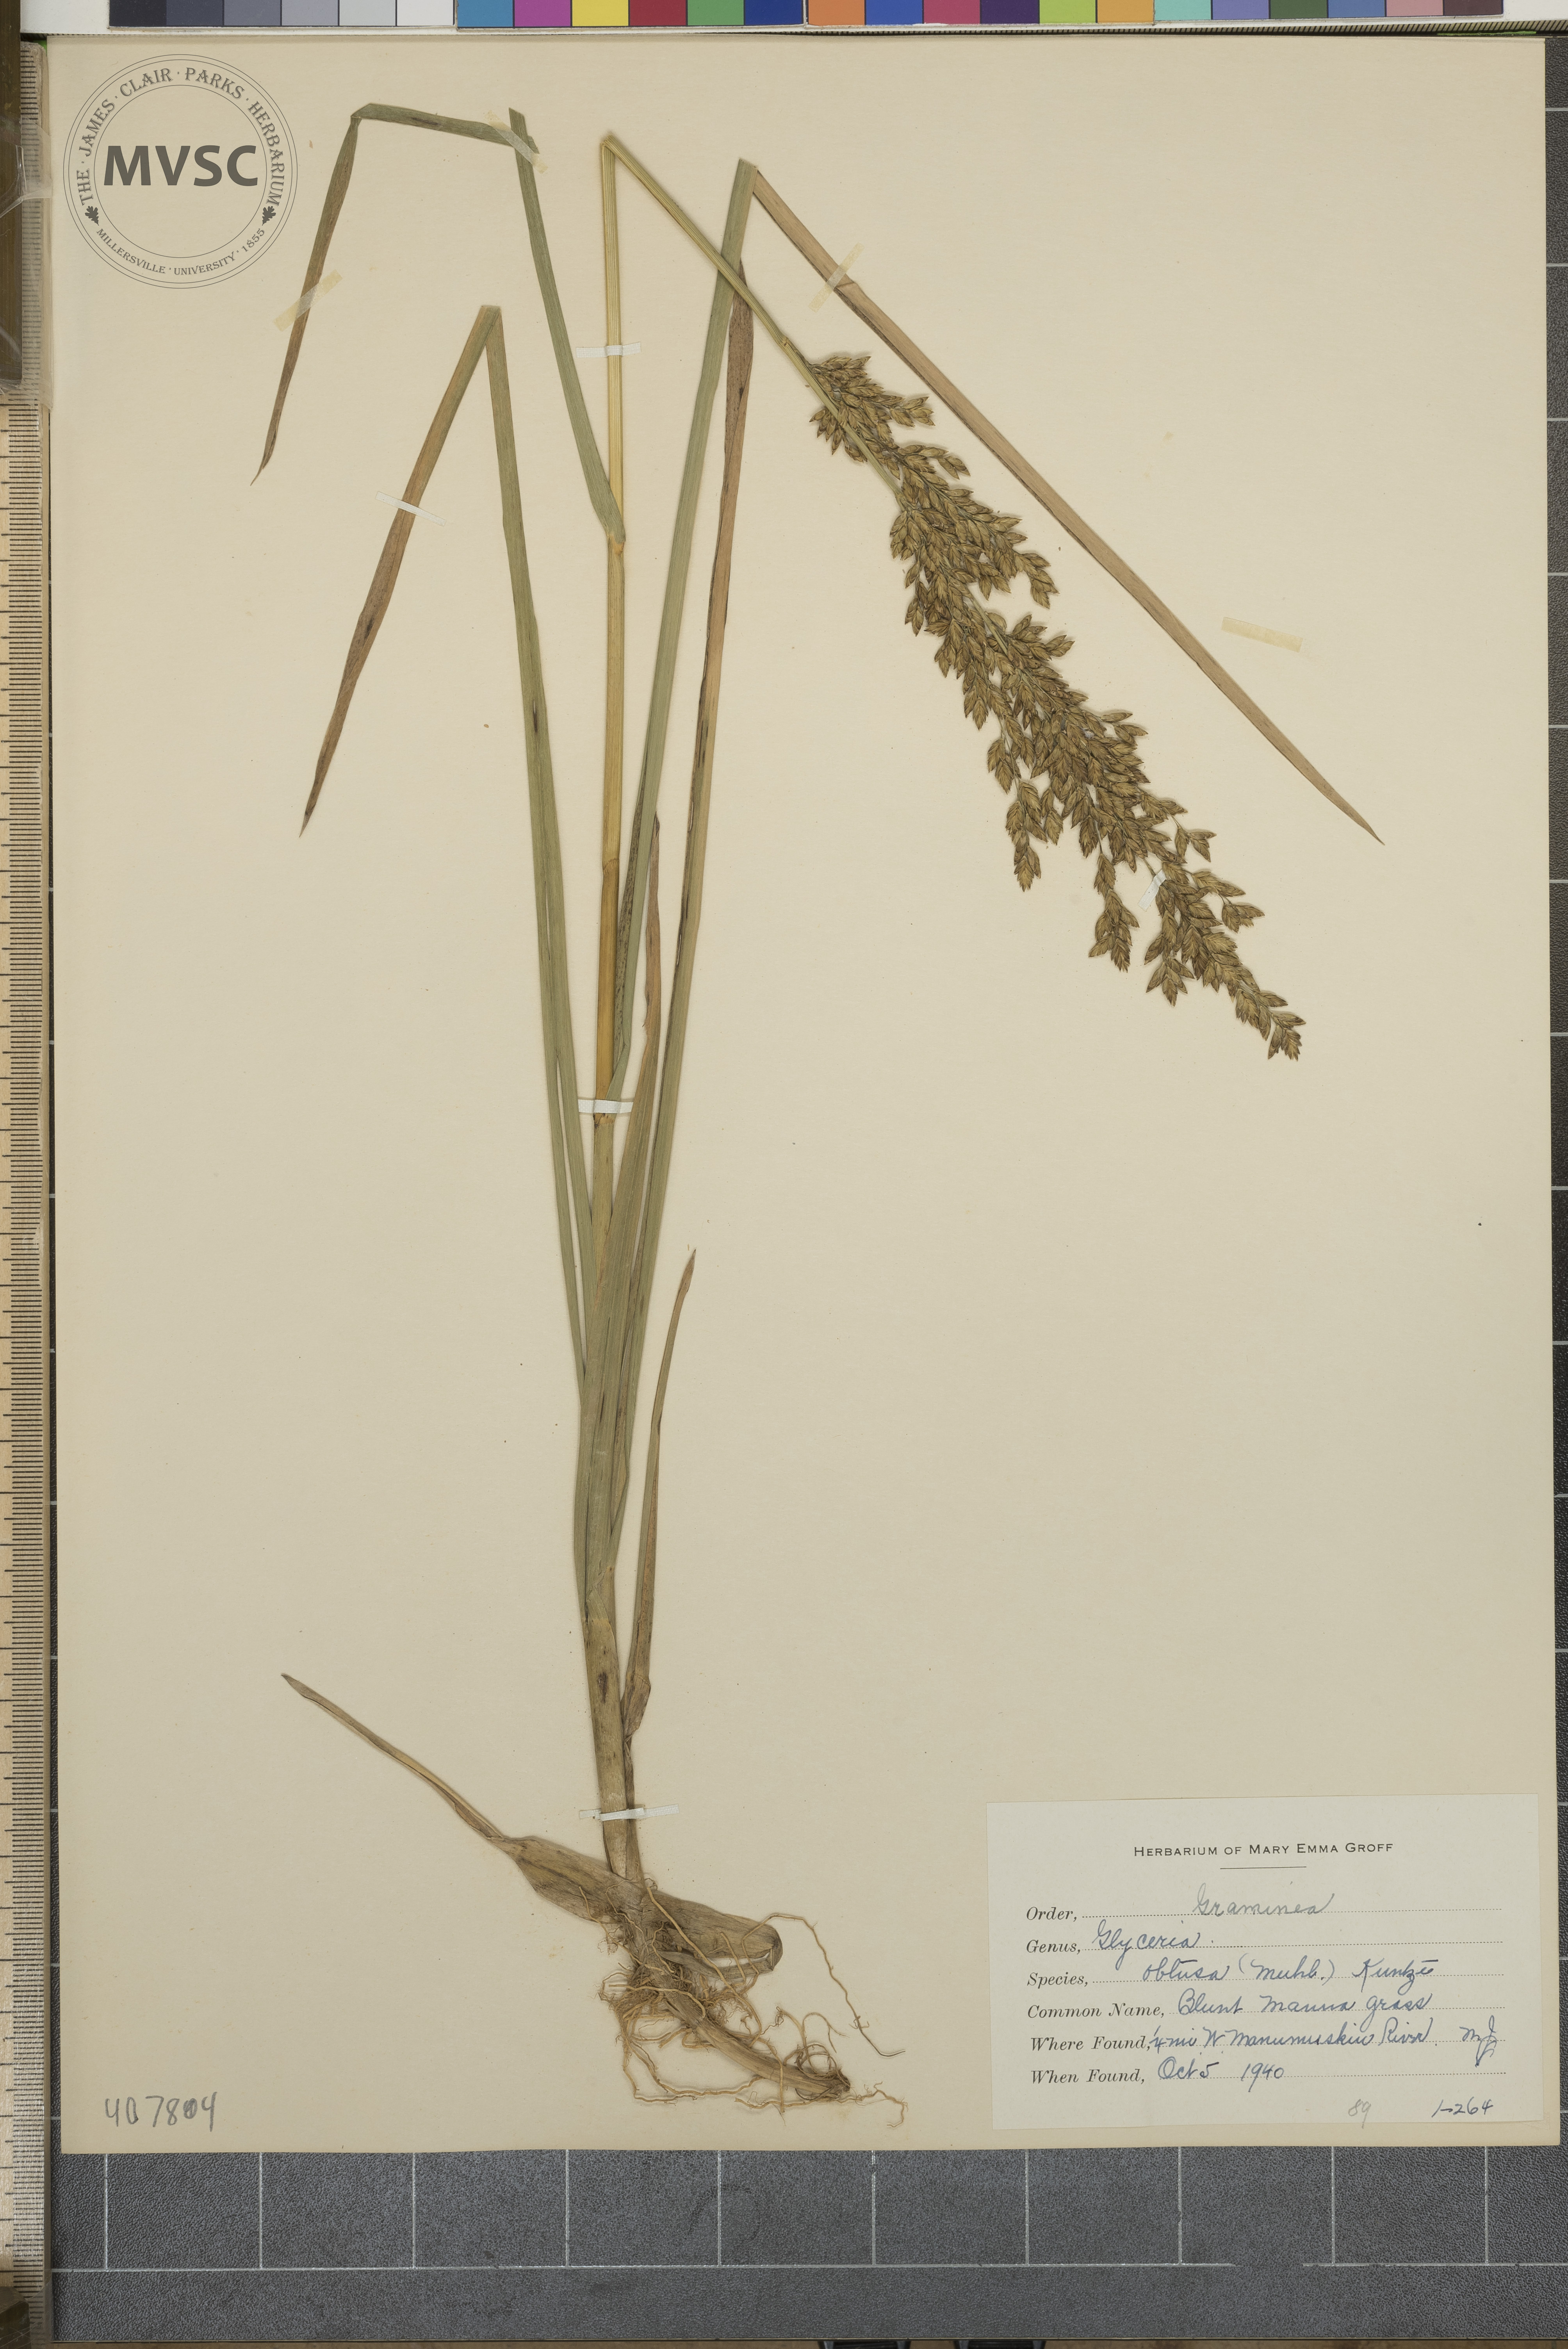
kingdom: Plantae
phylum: Tracheophyta
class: Liliopsida
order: Poales
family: Poaceae
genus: Glyceria
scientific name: Glyceria obtusa
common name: Atlantic mannagrass
